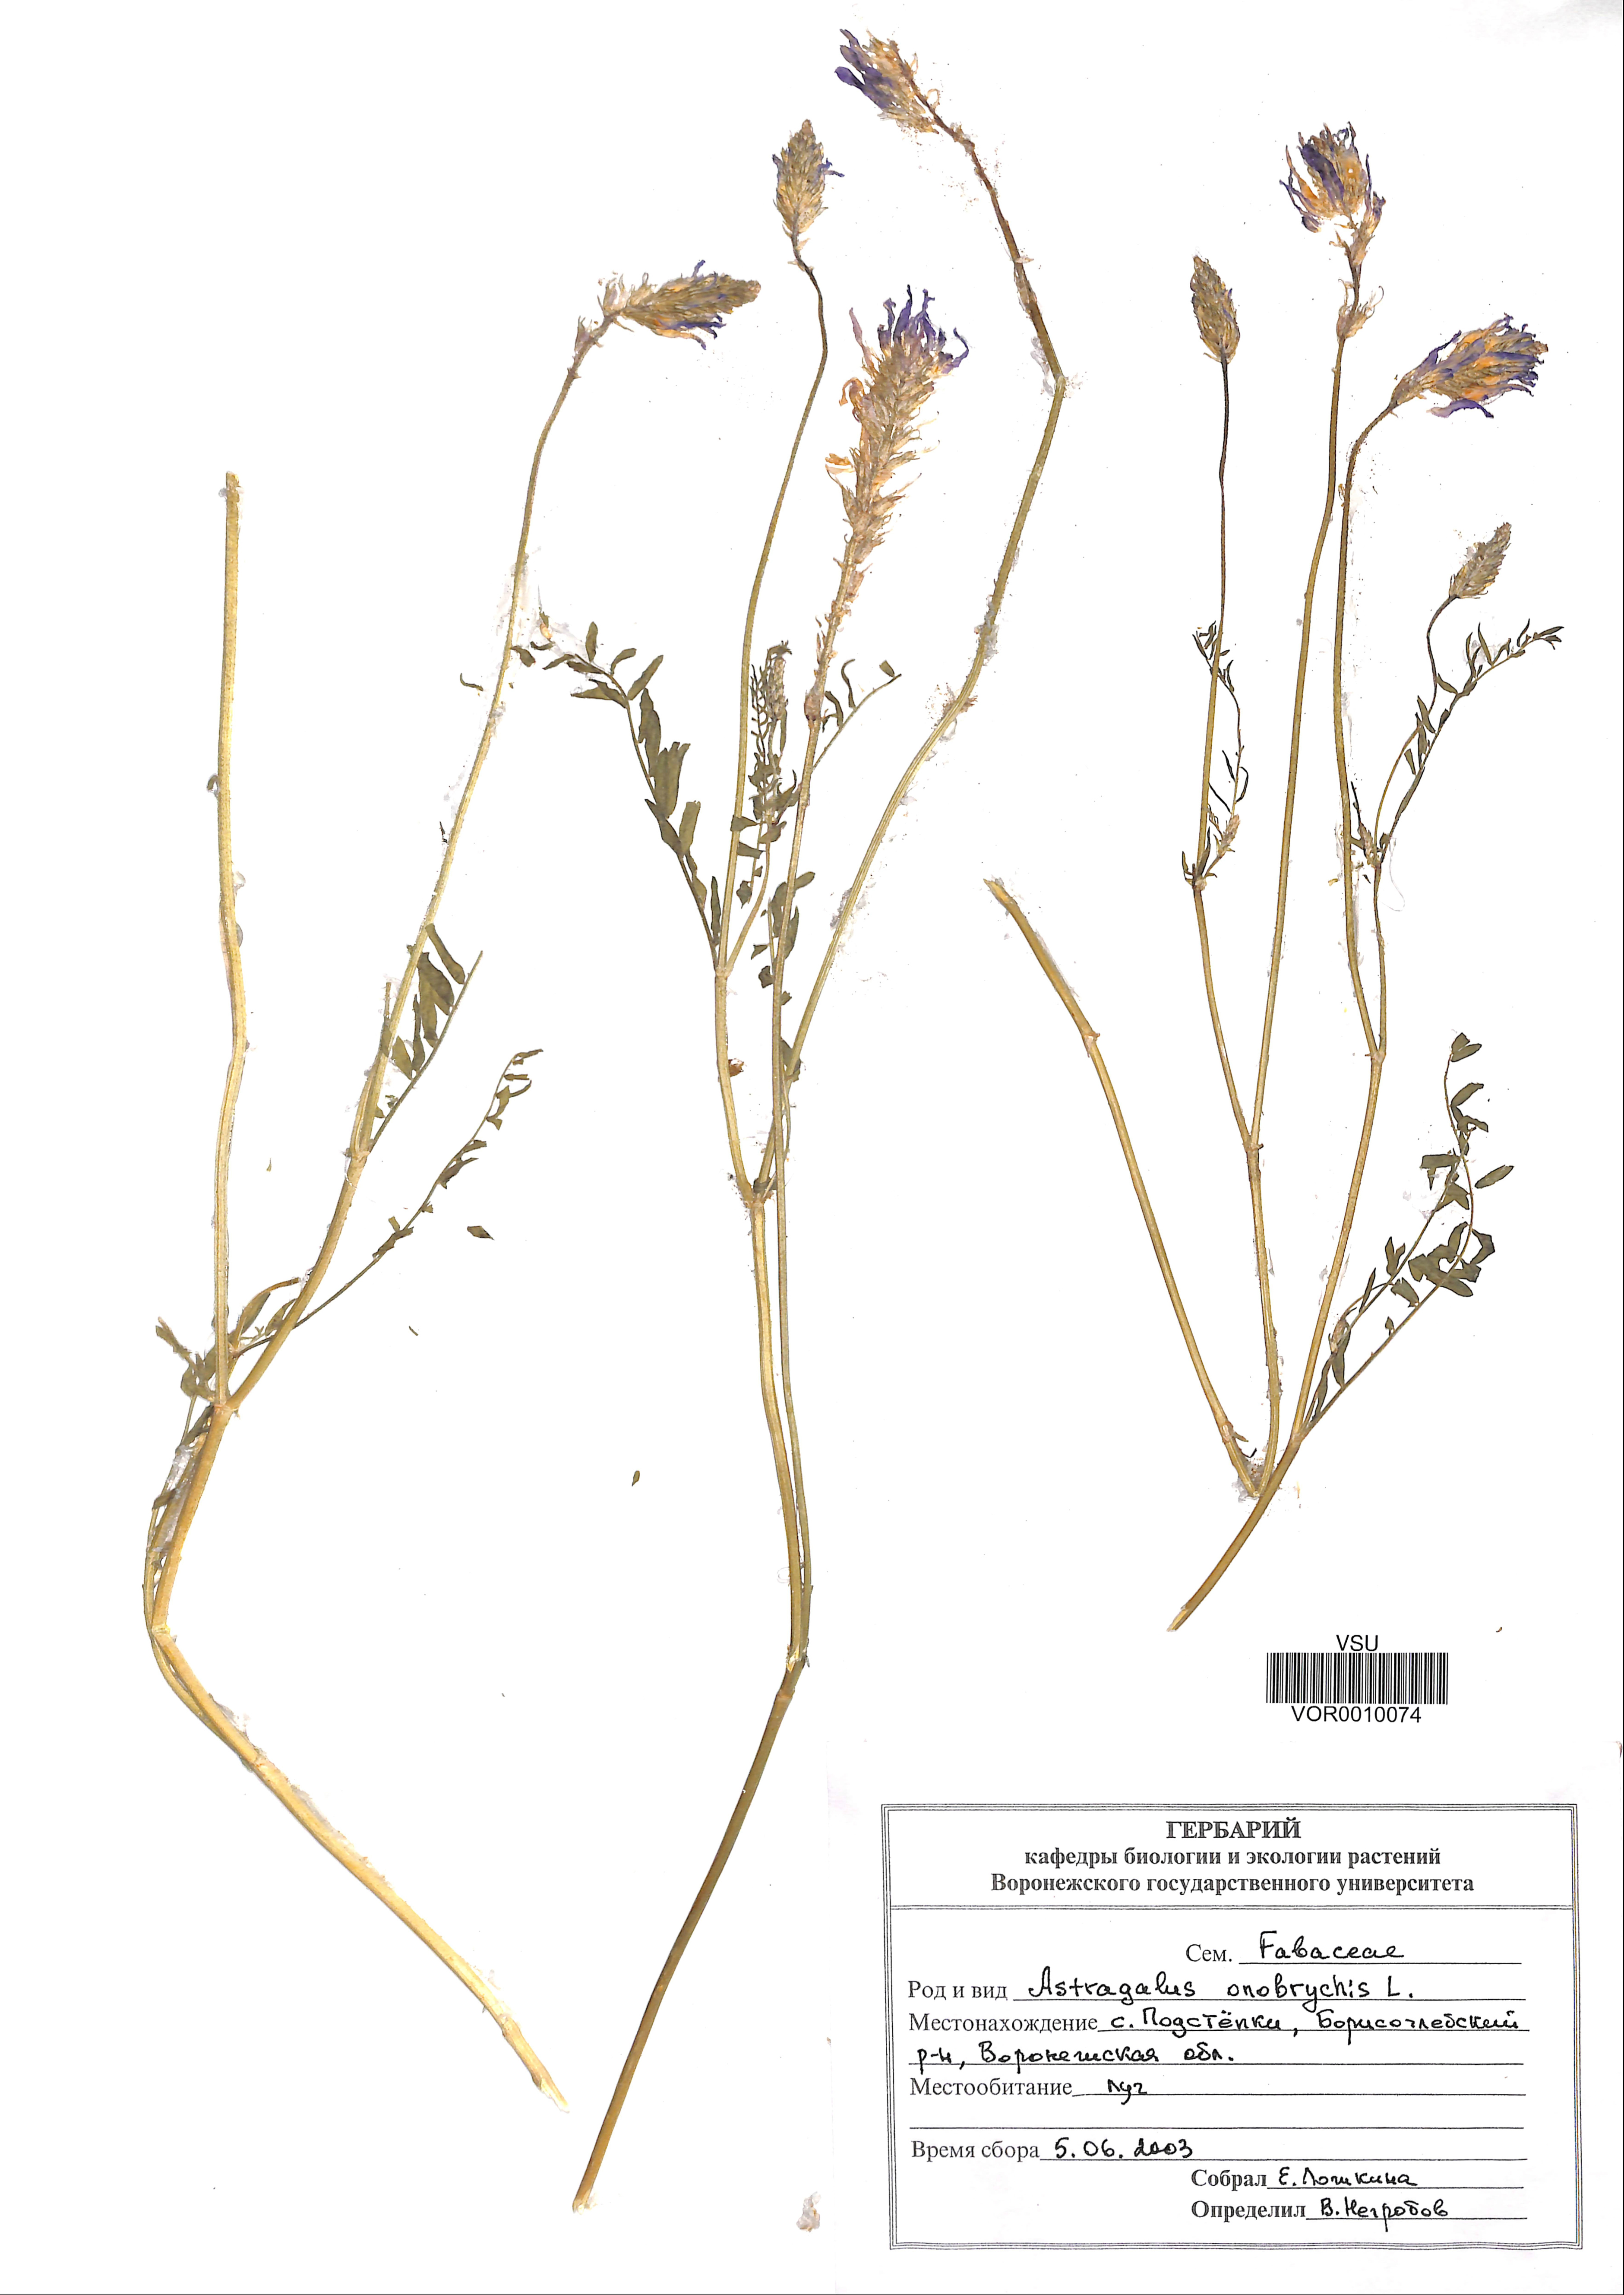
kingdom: Plantae
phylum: Tracheophyta
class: Magnoliopsida
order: Fabales
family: Fabaceae
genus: Astragalus
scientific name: Astragalus onobrychis
